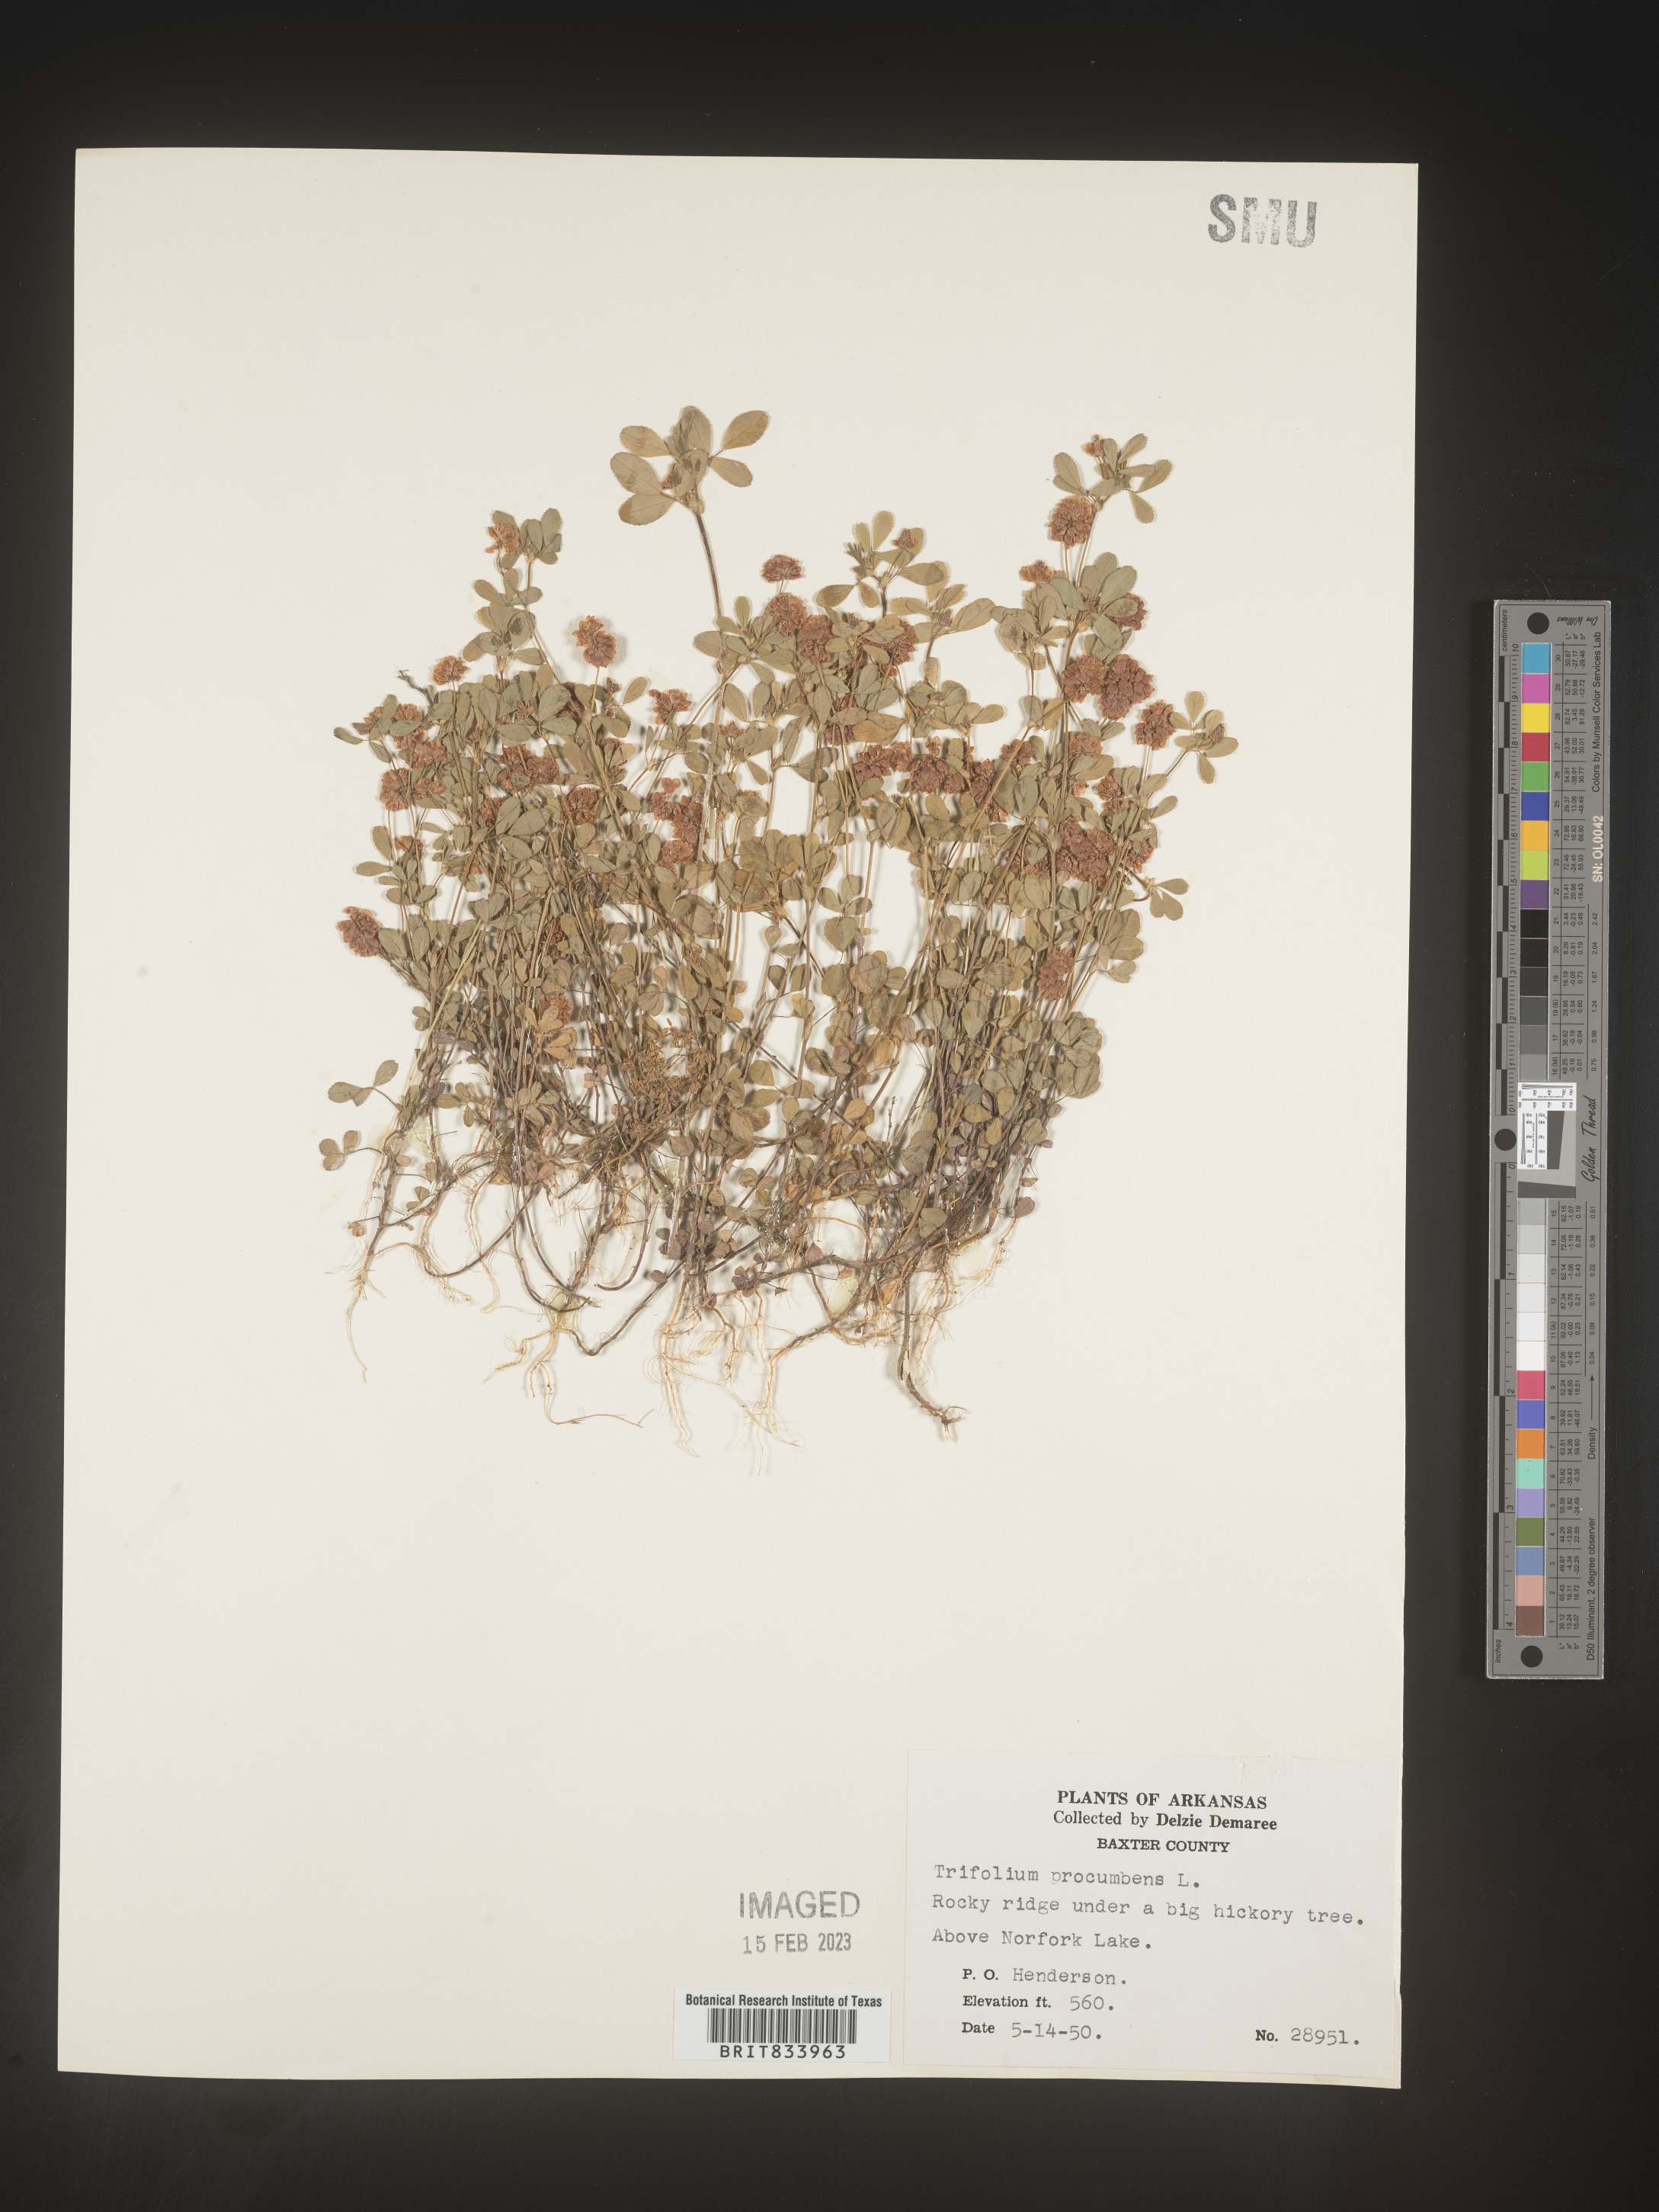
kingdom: Plantae
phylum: Tracheophyta
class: Magnoliopsida
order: Fabales
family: Fabaceae
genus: Trifolium
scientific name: Trifolium campestre
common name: Field clover
